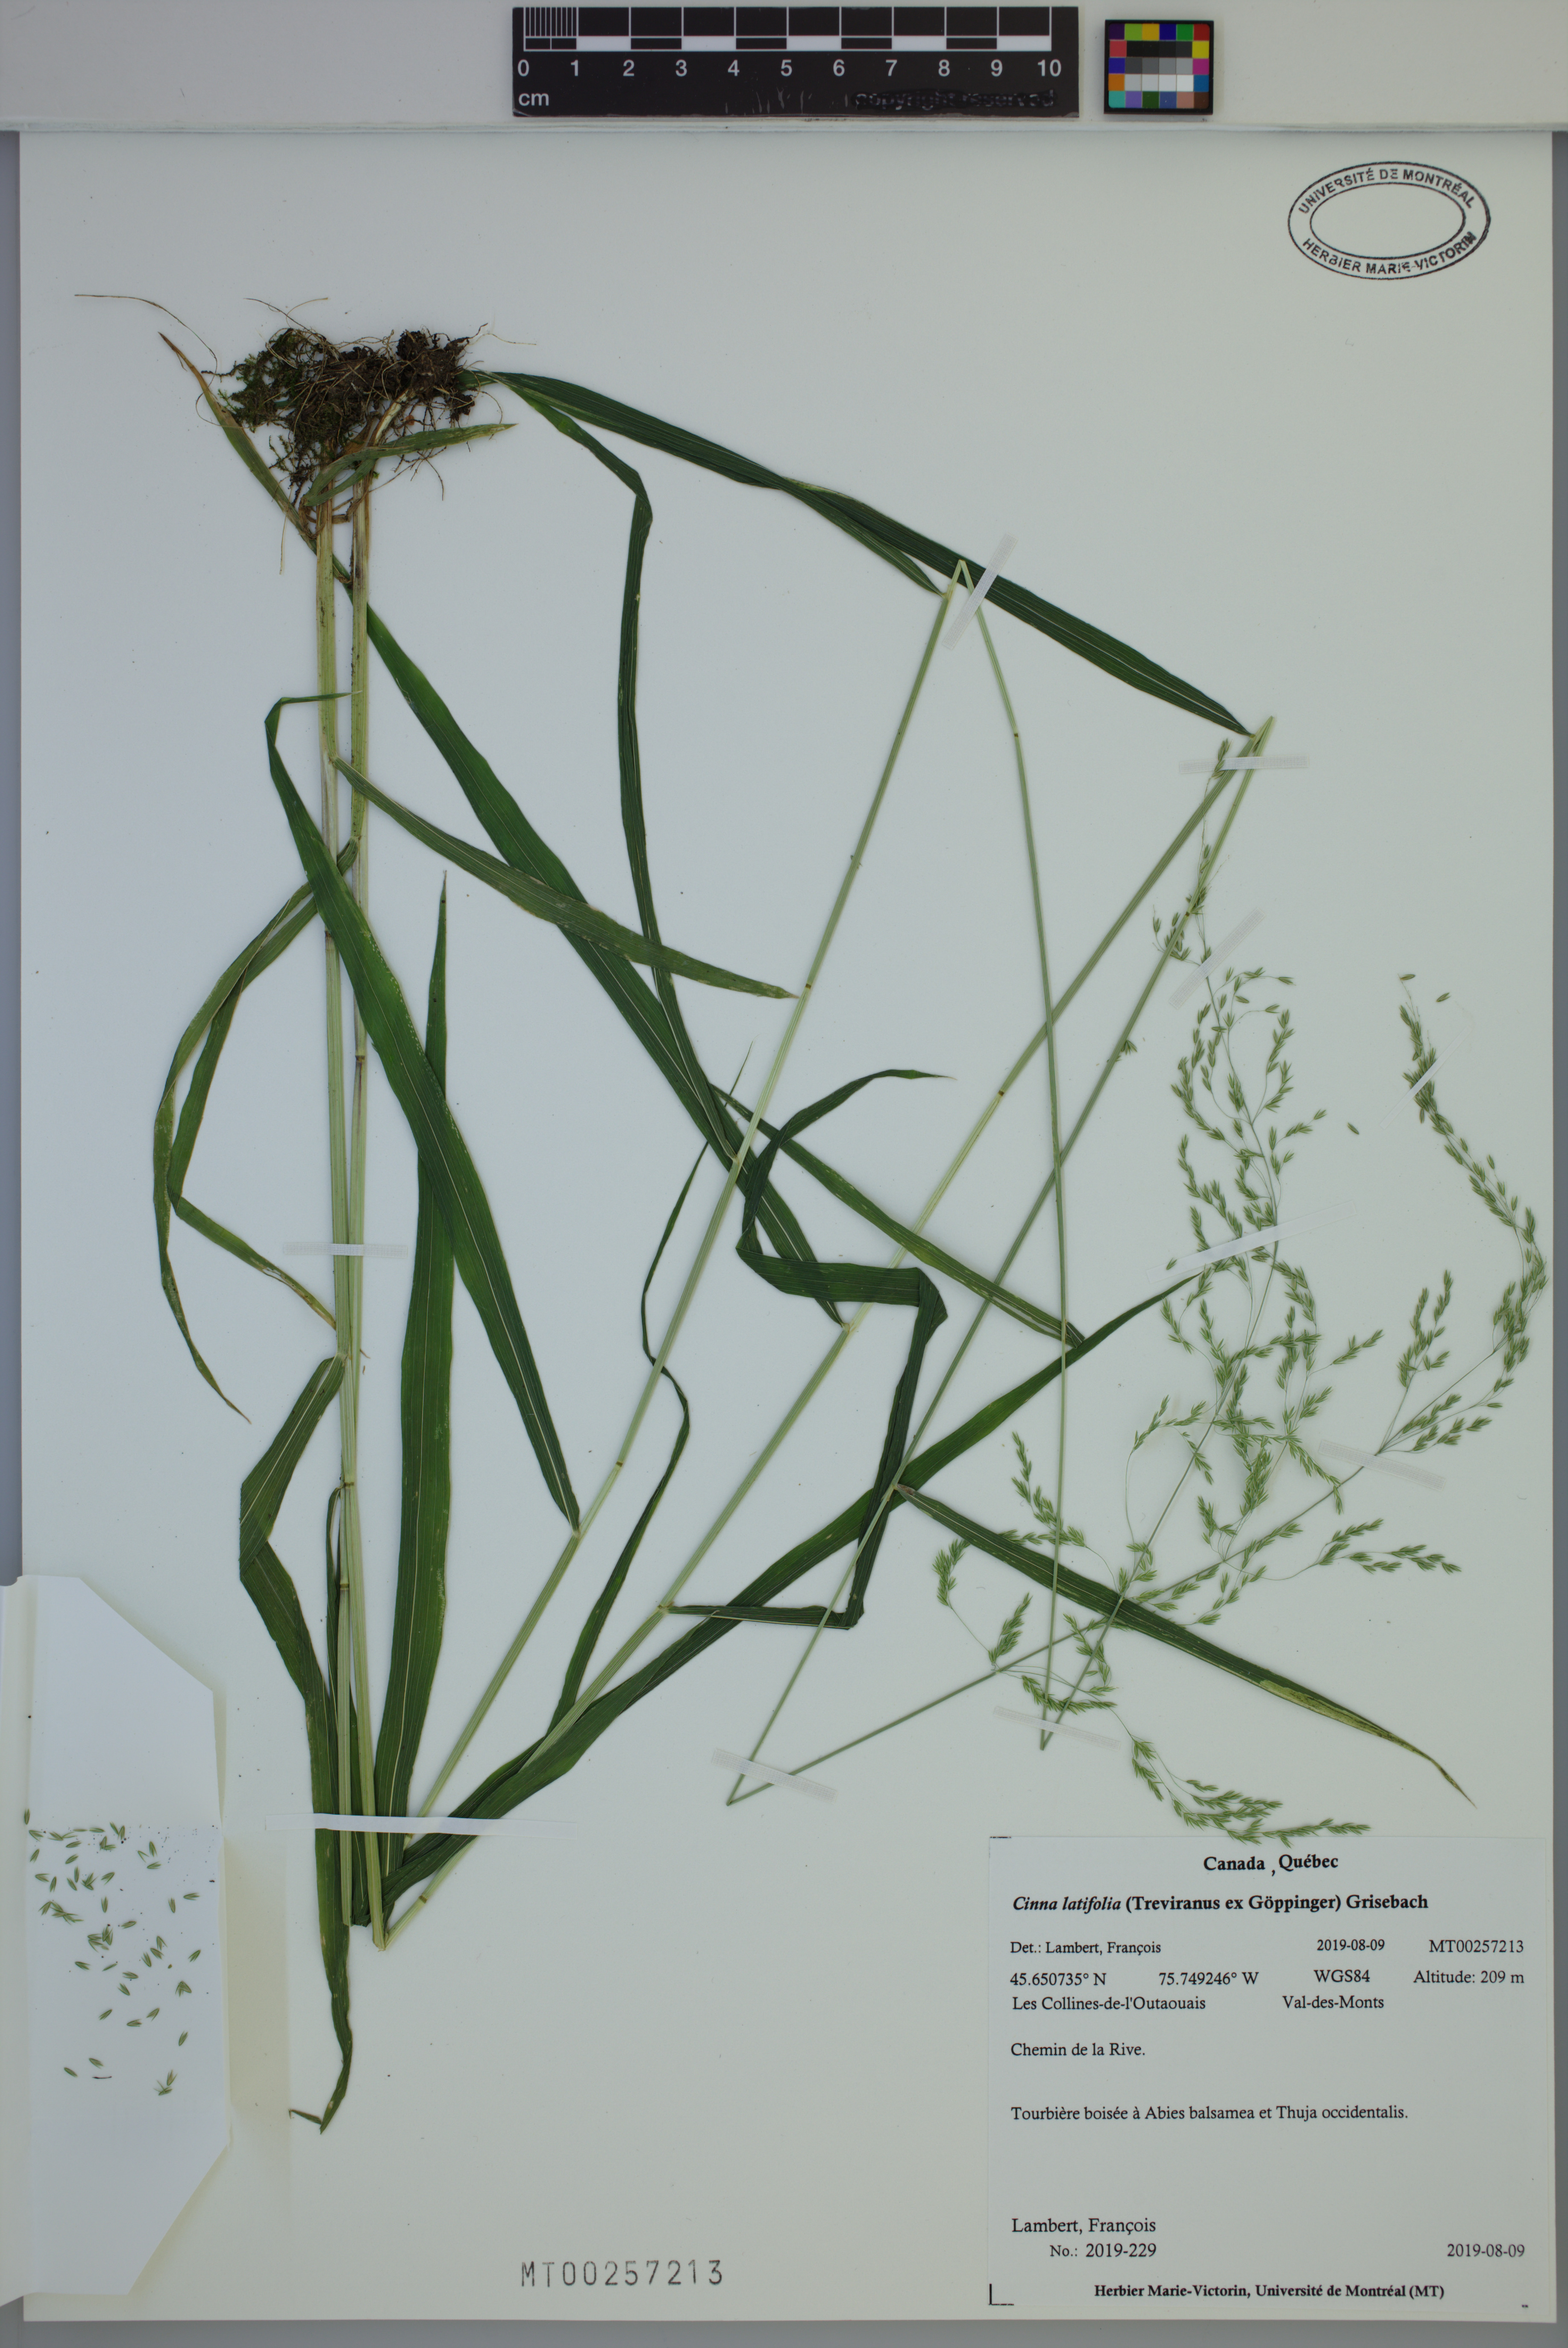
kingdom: Plantae
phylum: Tracheophyta
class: Liliopsida
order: Poales
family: Poaceae
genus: Cinna
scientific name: Cinna latifolia
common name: Drooping woodreed
